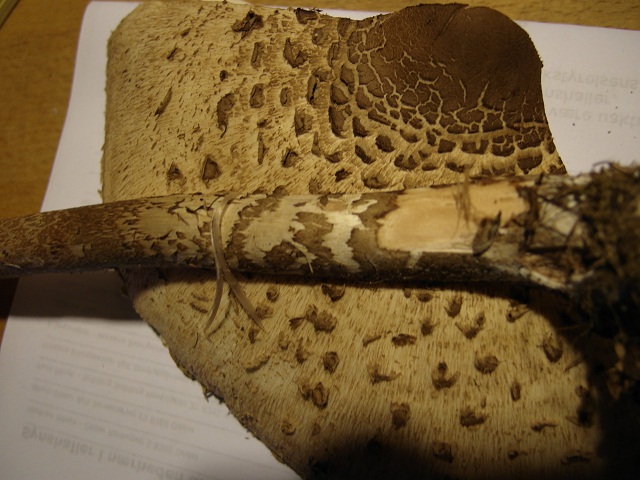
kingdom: Fungi
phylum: Basidiomycota
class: Agaricomycetes
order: Agaricales
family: Agaricaceae
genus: Macrolepiota
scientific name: Macrolepiota
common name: kæmpeparasolhat
